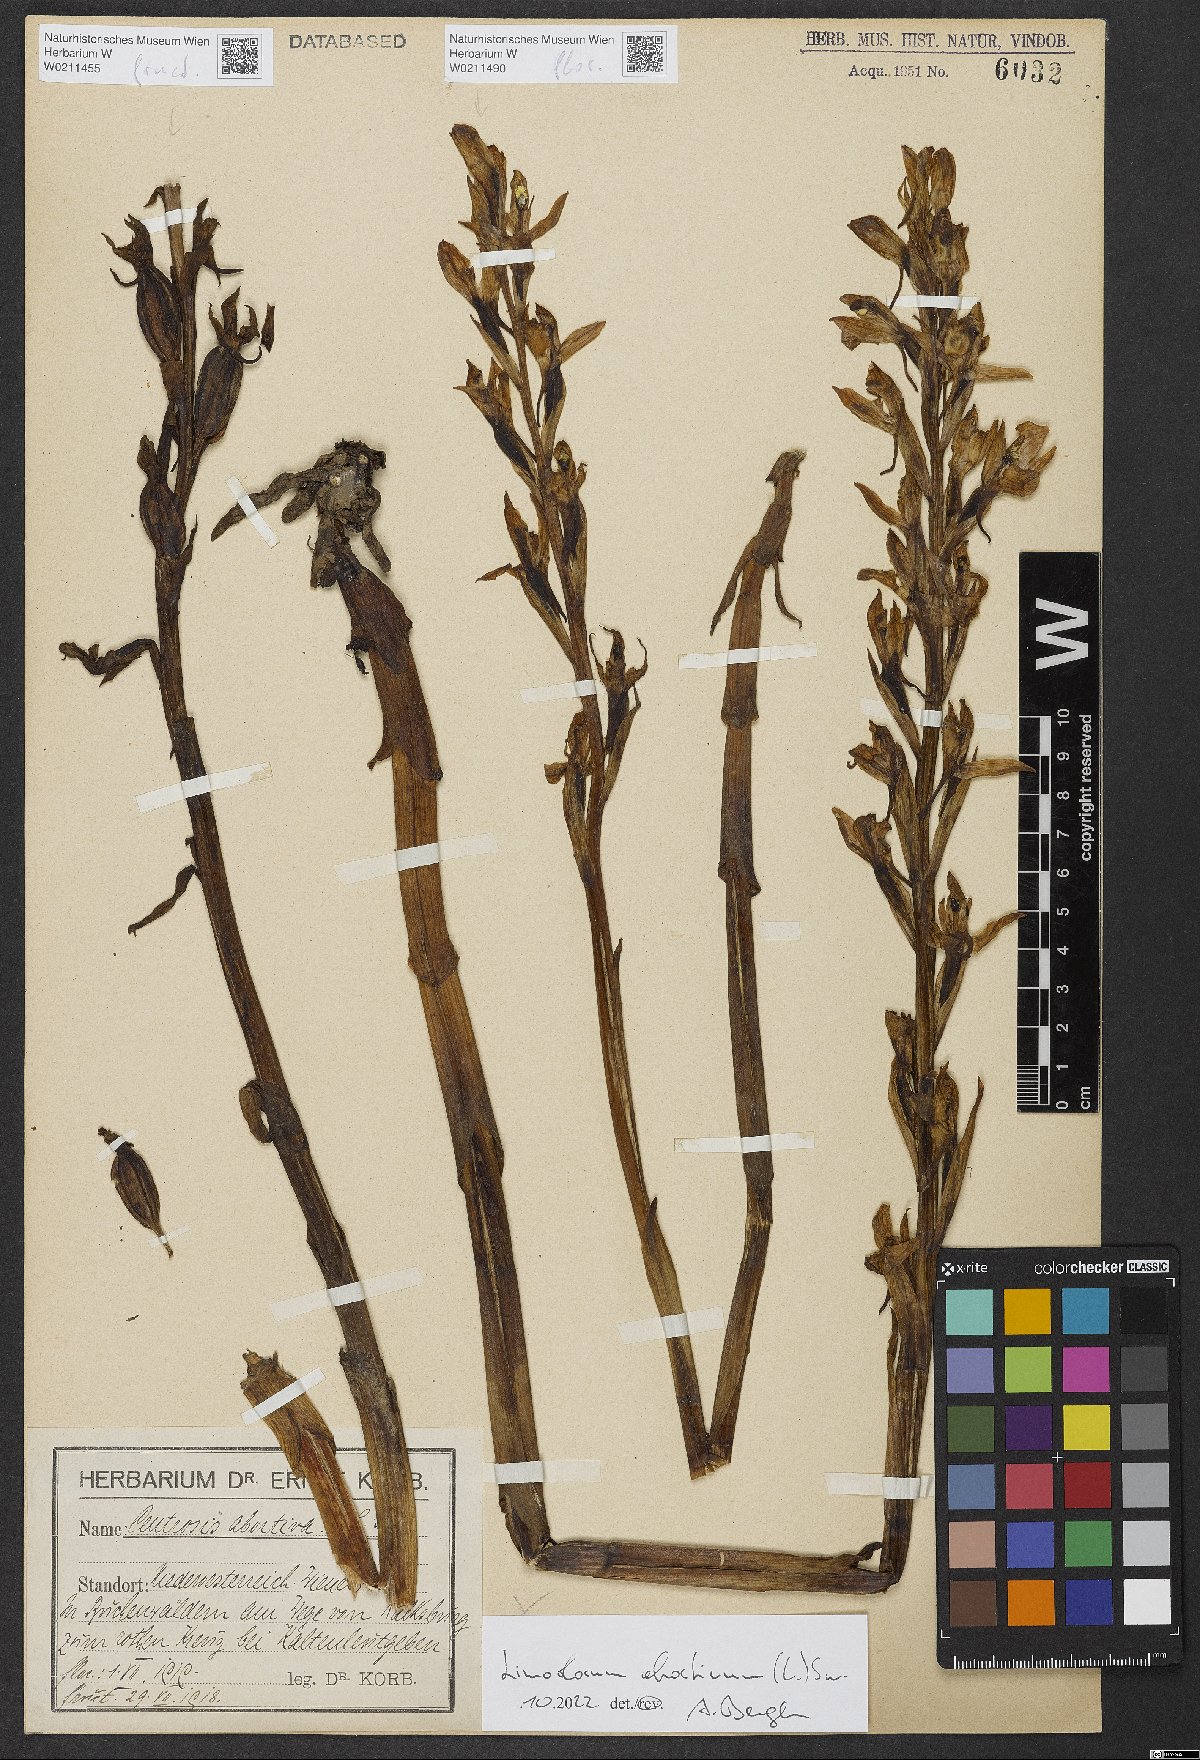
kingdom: Plantae
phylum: Tracheophyta
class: Liliopsida
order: Asparagales
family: Orchidaceae
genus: Limodorum
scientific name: Limodorum abortivum
